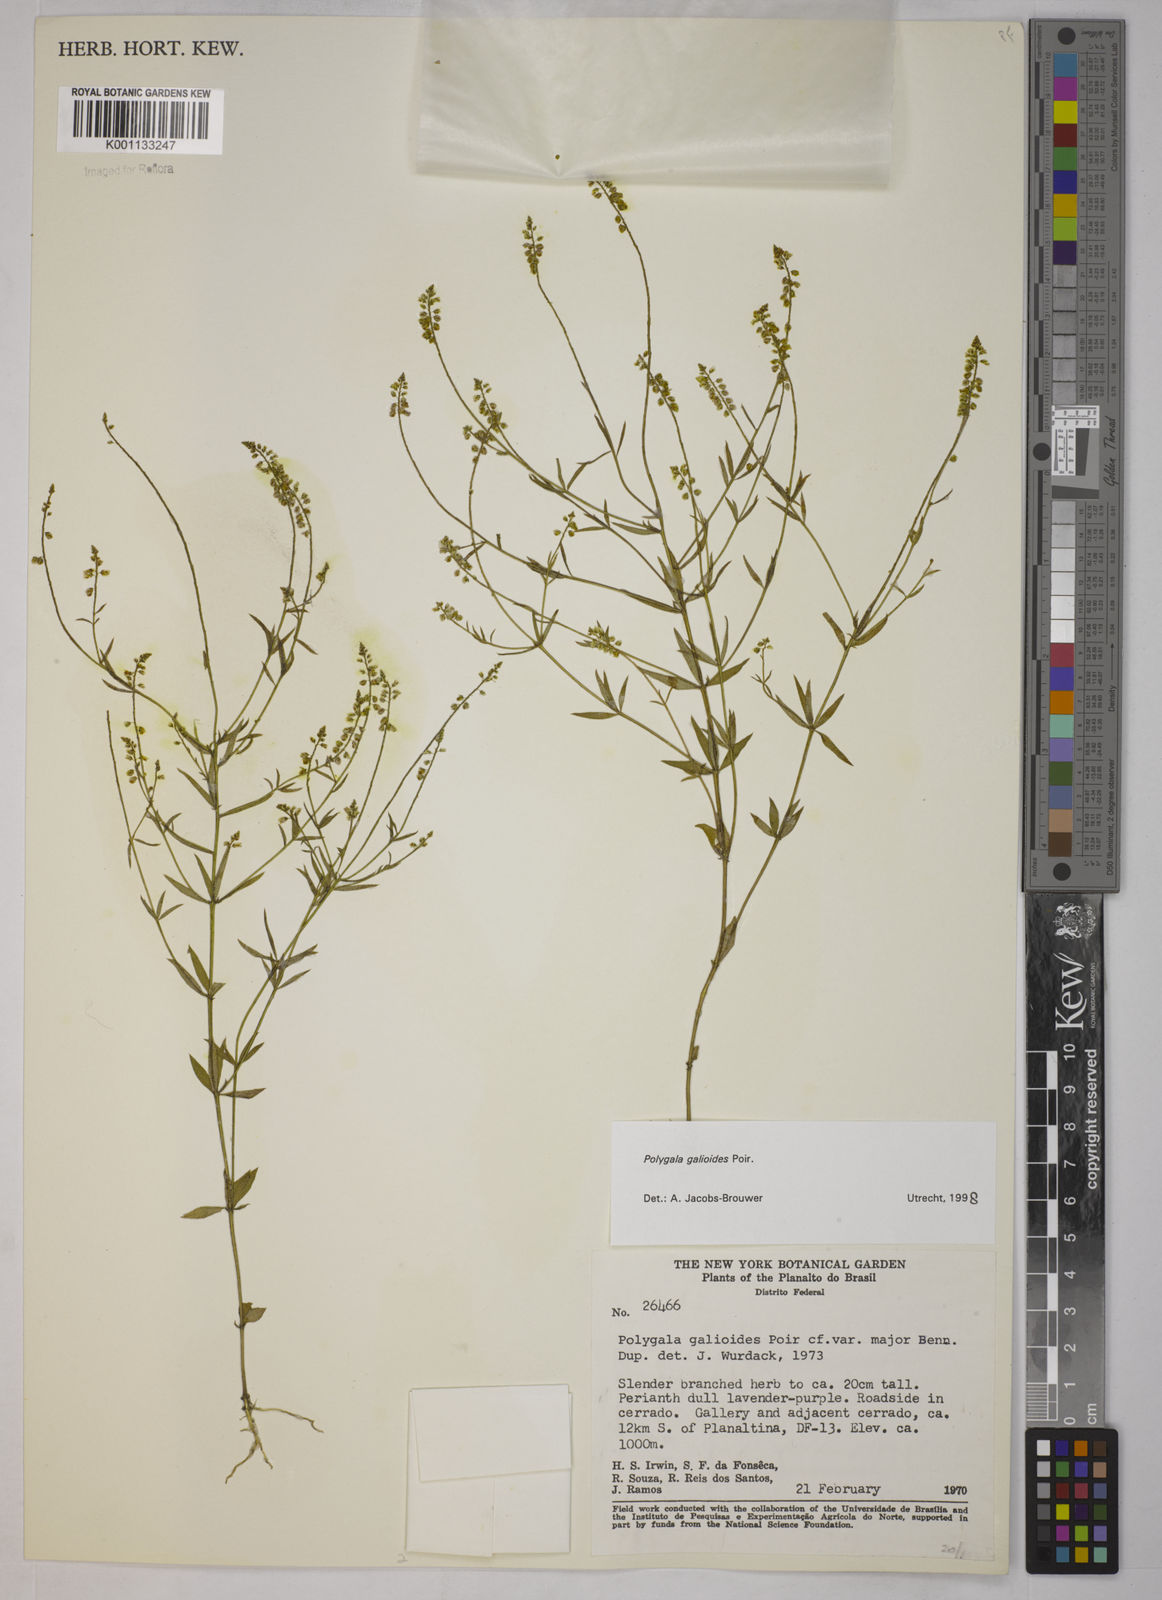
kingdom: Plantae
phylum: Tracheophyta
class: Magnoliopsida
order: Fabales
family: Polygalaceae
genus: Polygala
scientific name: Polygala galioides
